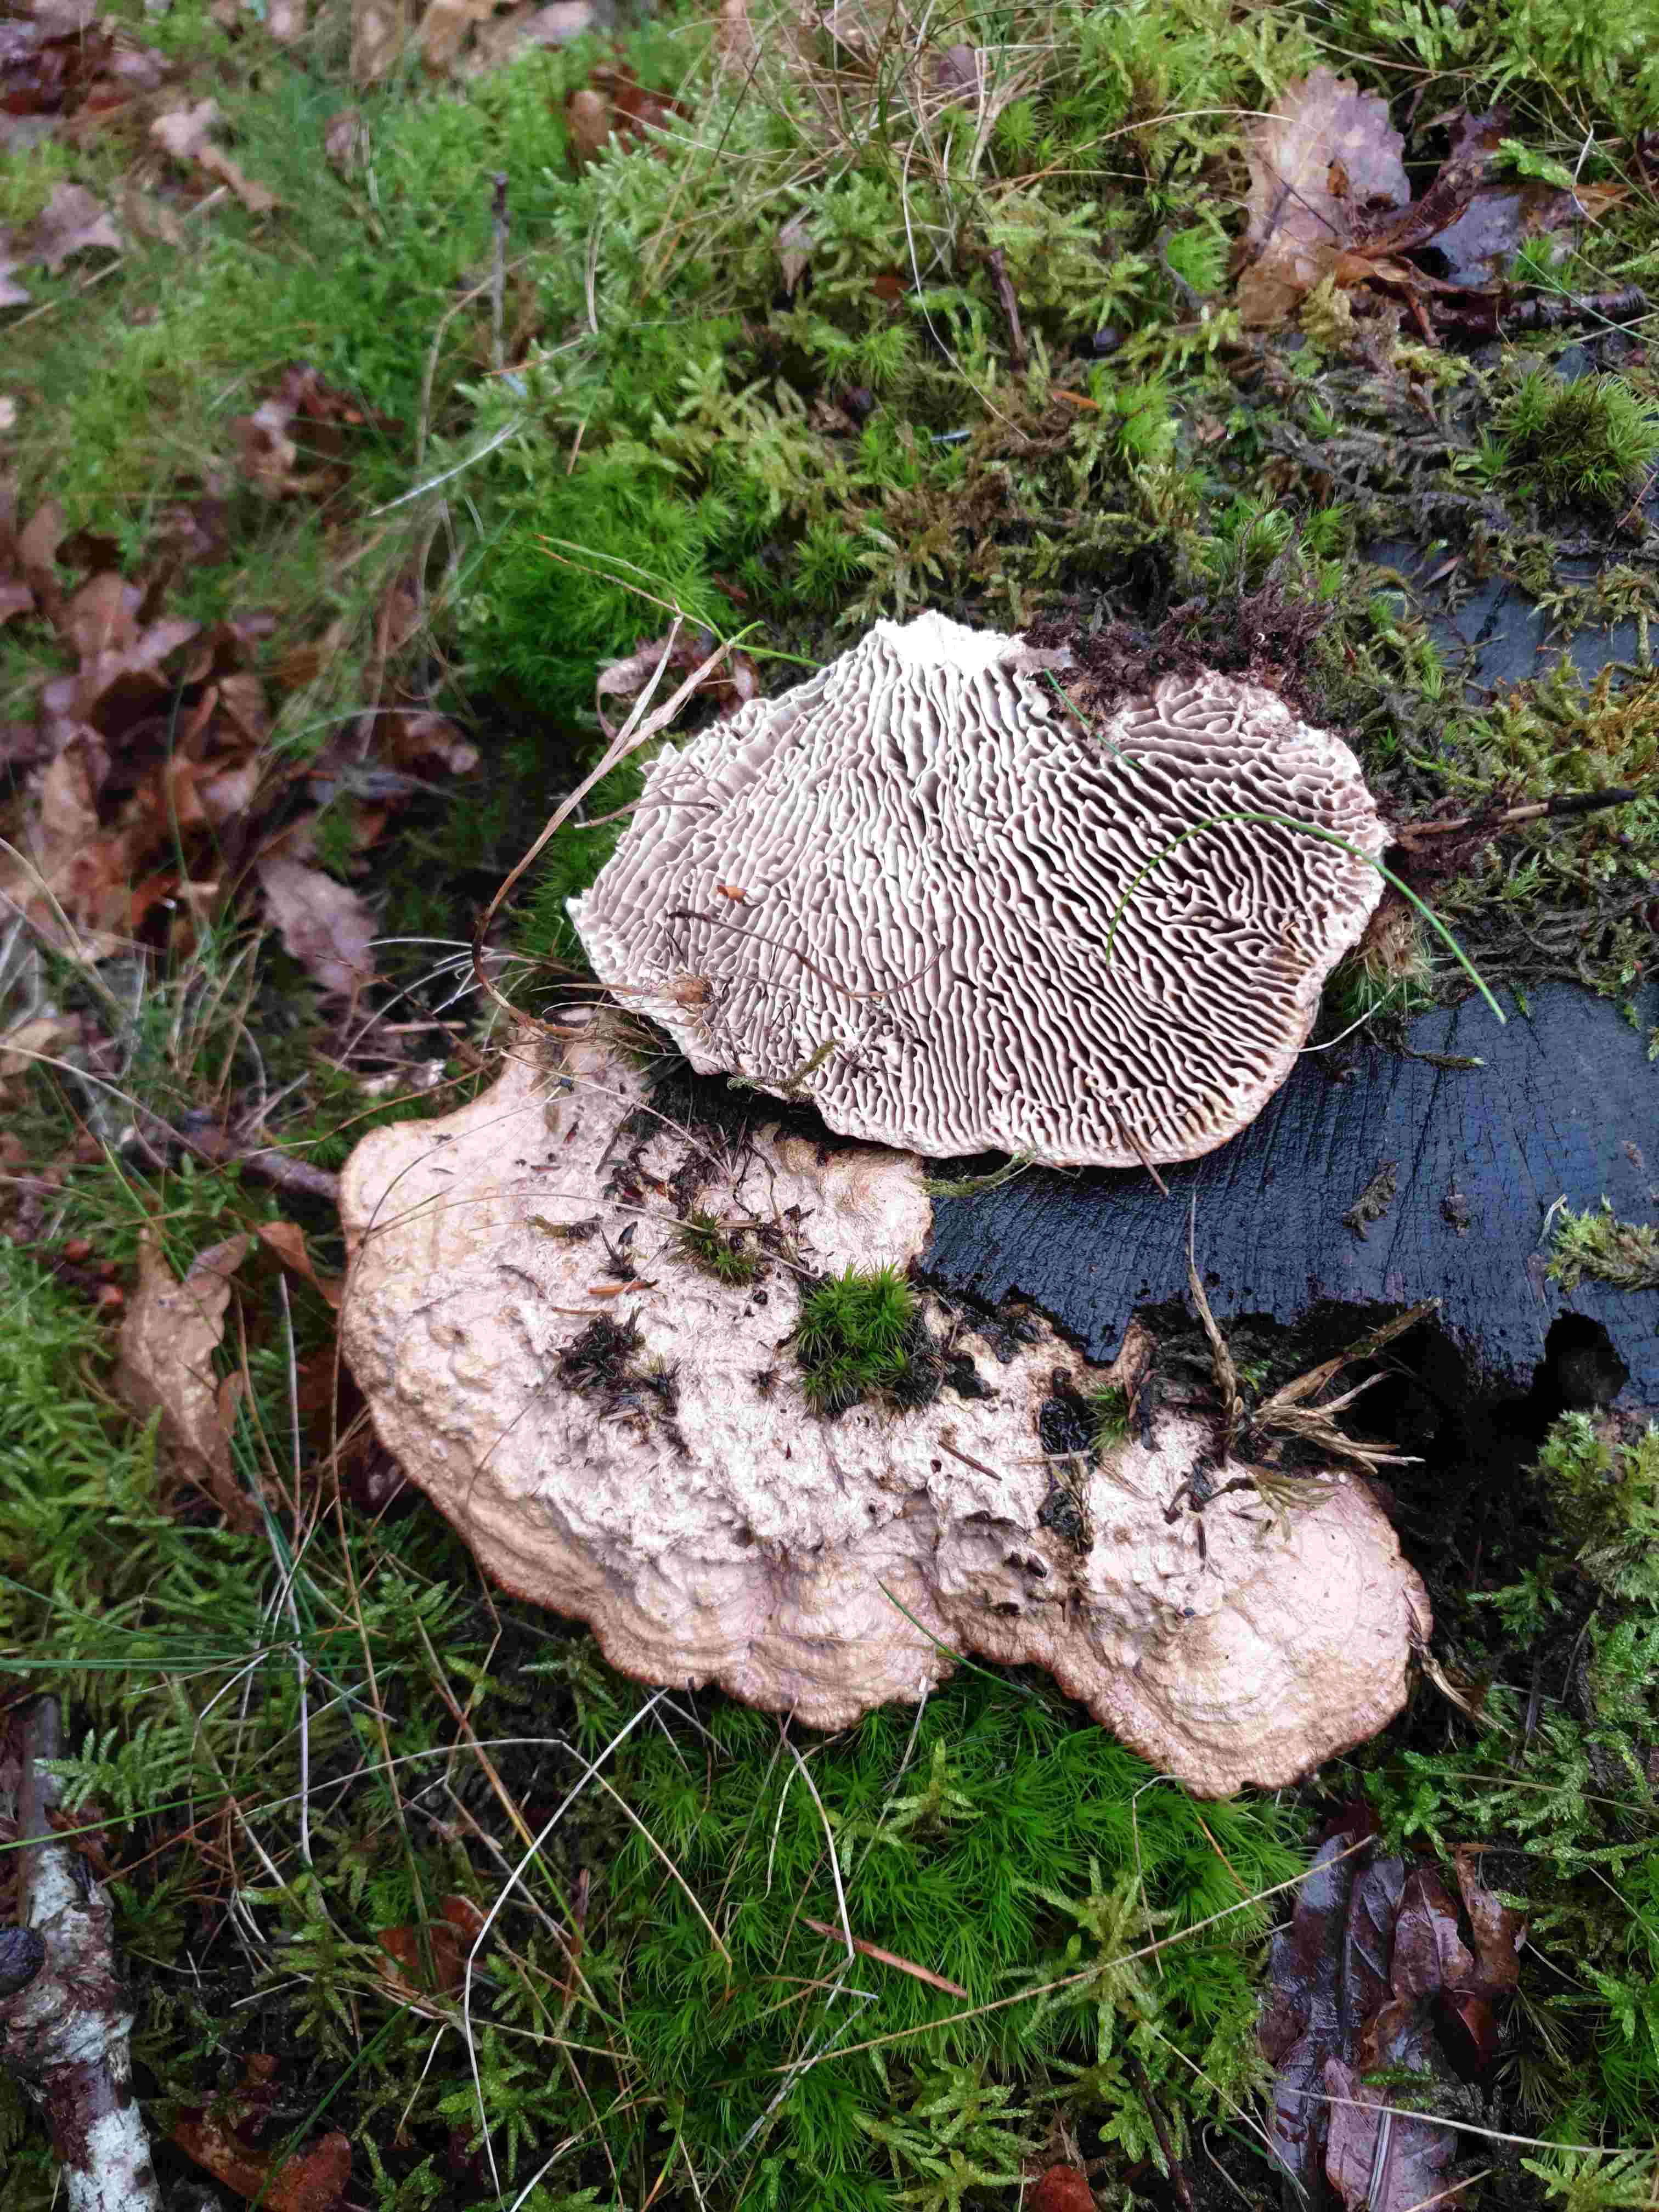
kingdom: Fungi
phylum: Basidiomycota
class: Agaricomycetes
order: Polyporales
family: Fomitopsidaceae
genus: Daedalea
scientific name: Daedalea quercina
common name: ege-labyrintsvamp
